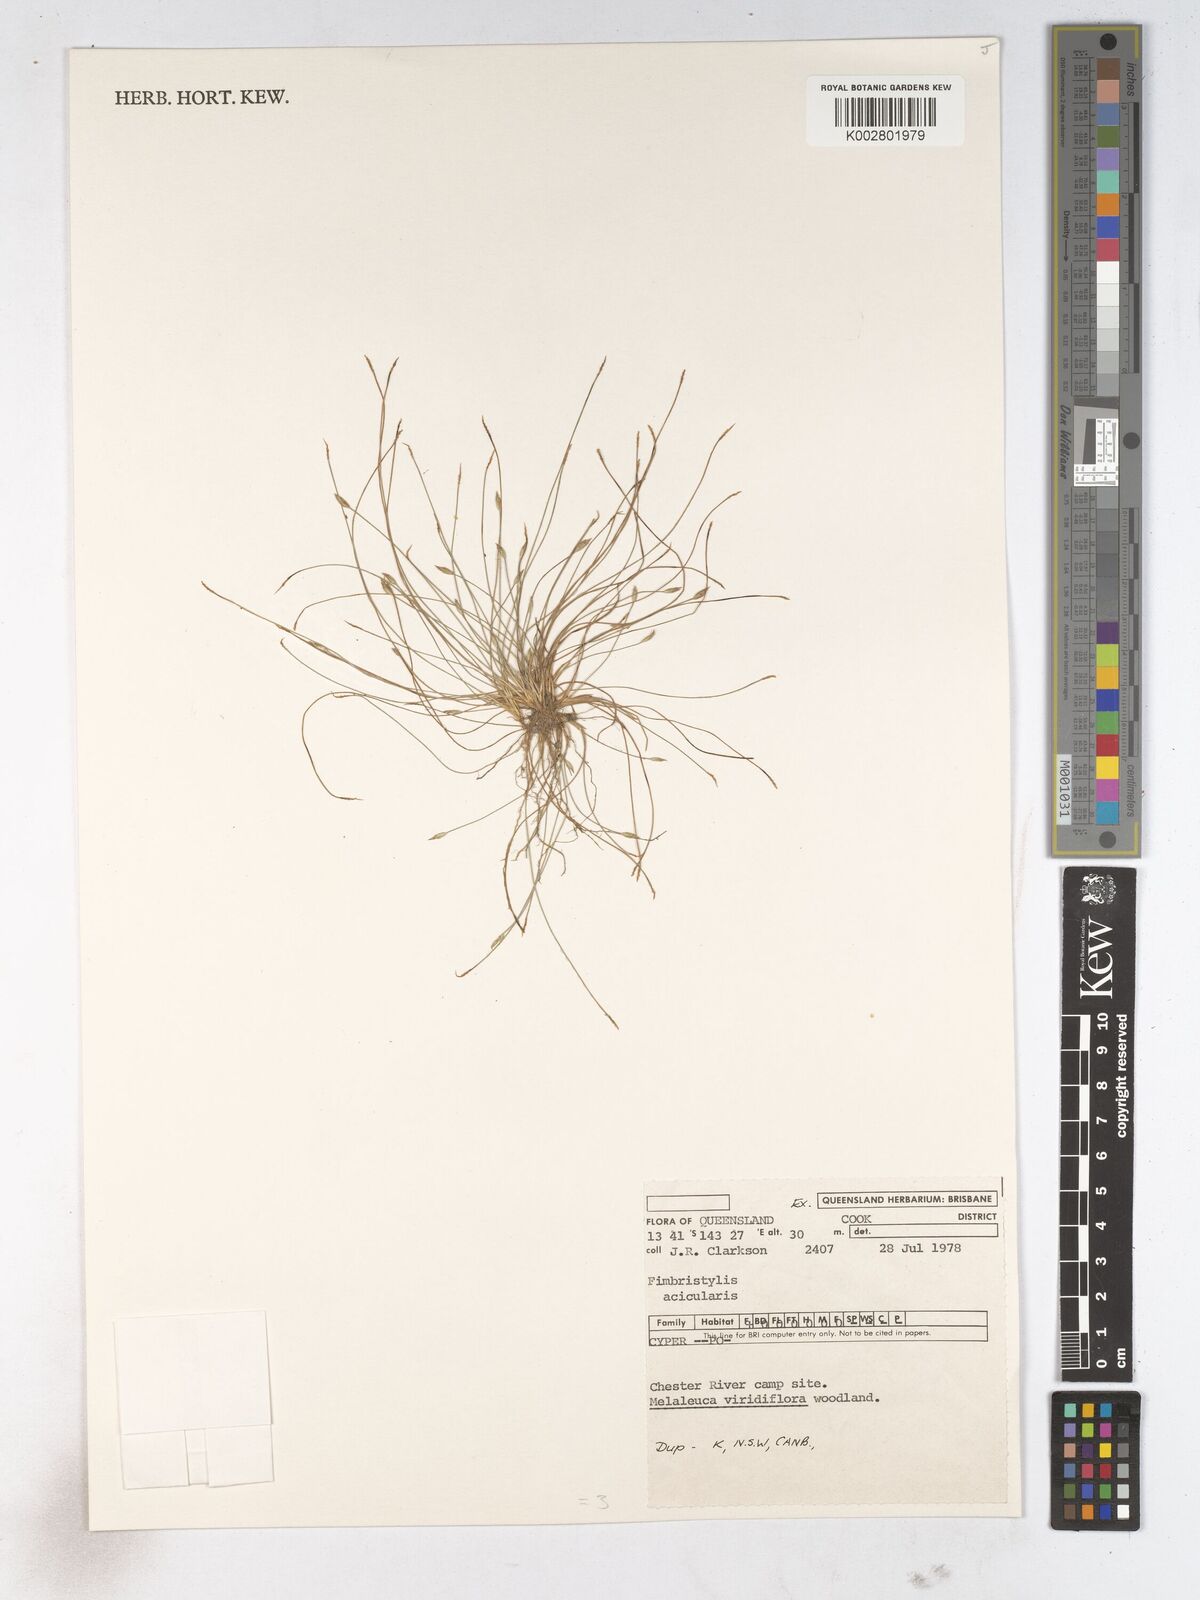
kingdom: Plantae
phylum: Tracheophyta
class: Liliopsida
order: Poales
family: Cyperaceae
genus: Fimbristylis
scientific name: Fimbristylis acicularis
